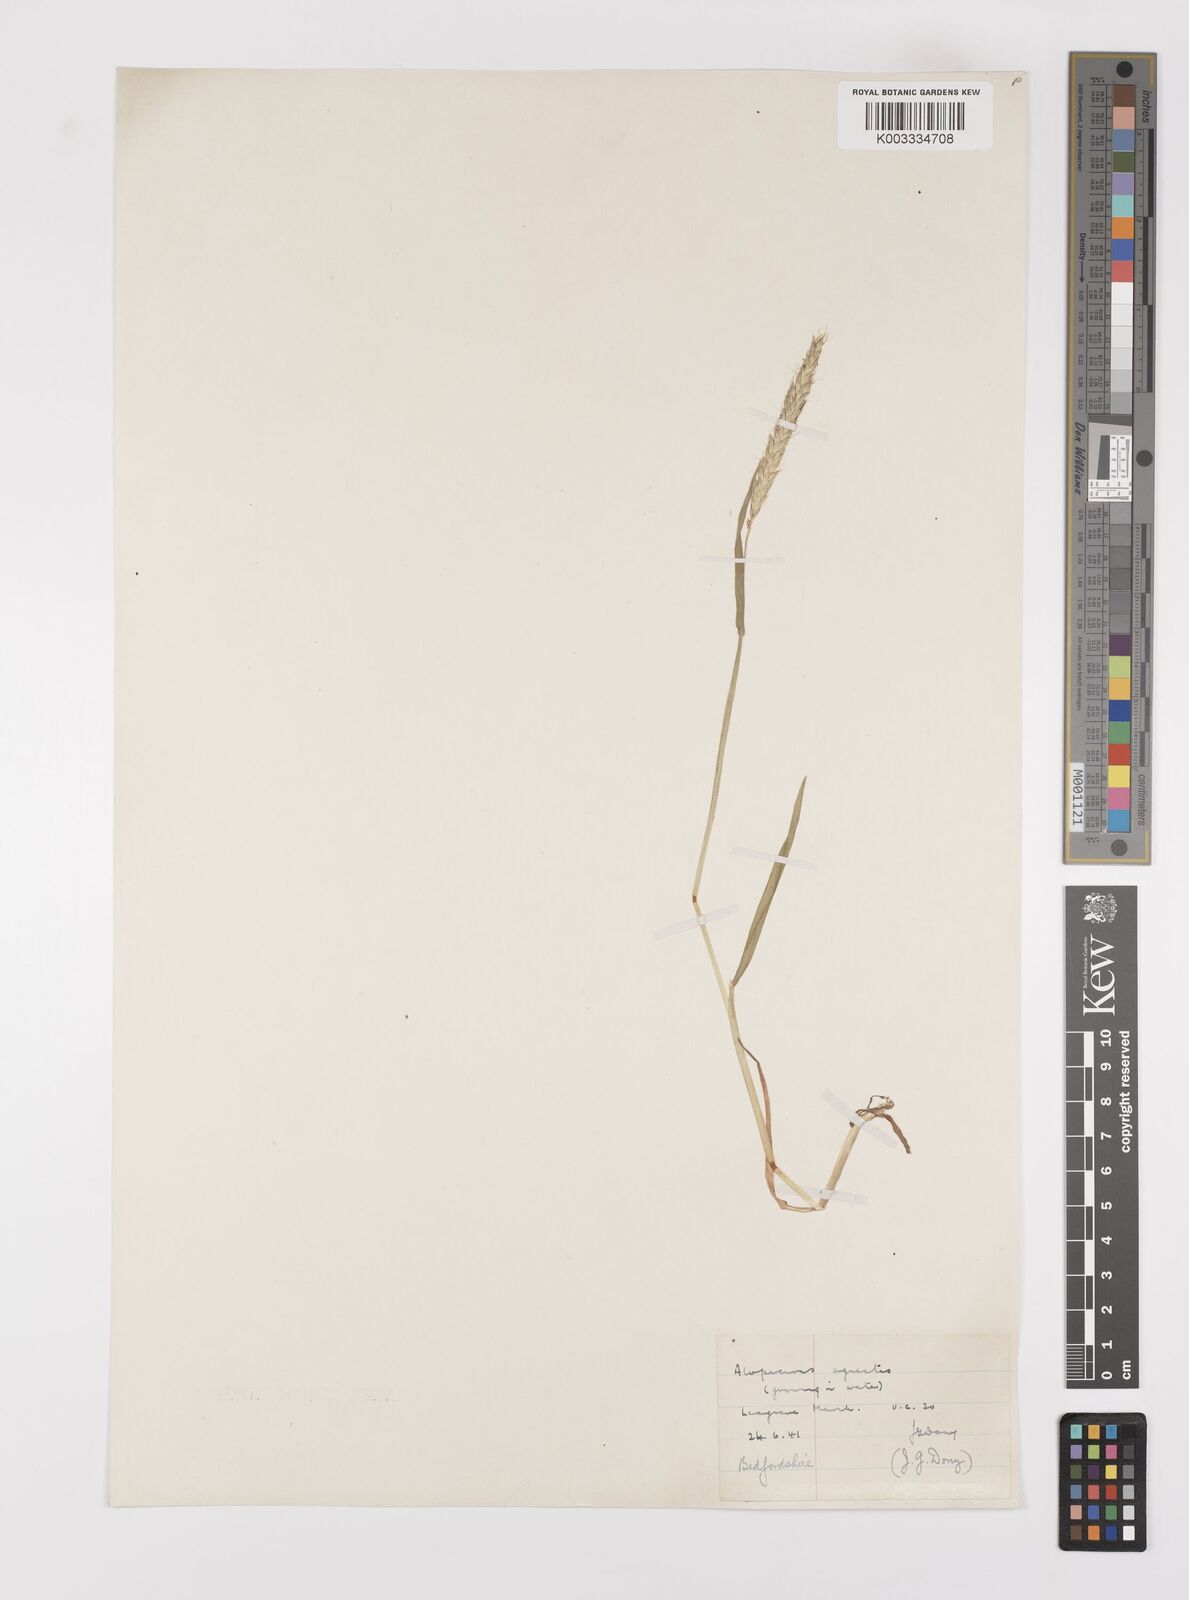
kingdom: Plantae
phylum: Tracheophyta
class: Liliopsida
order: Poales
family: Poaceae
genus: Alopecurus
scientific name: Alopecurus myosuroides
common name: Black-grass
